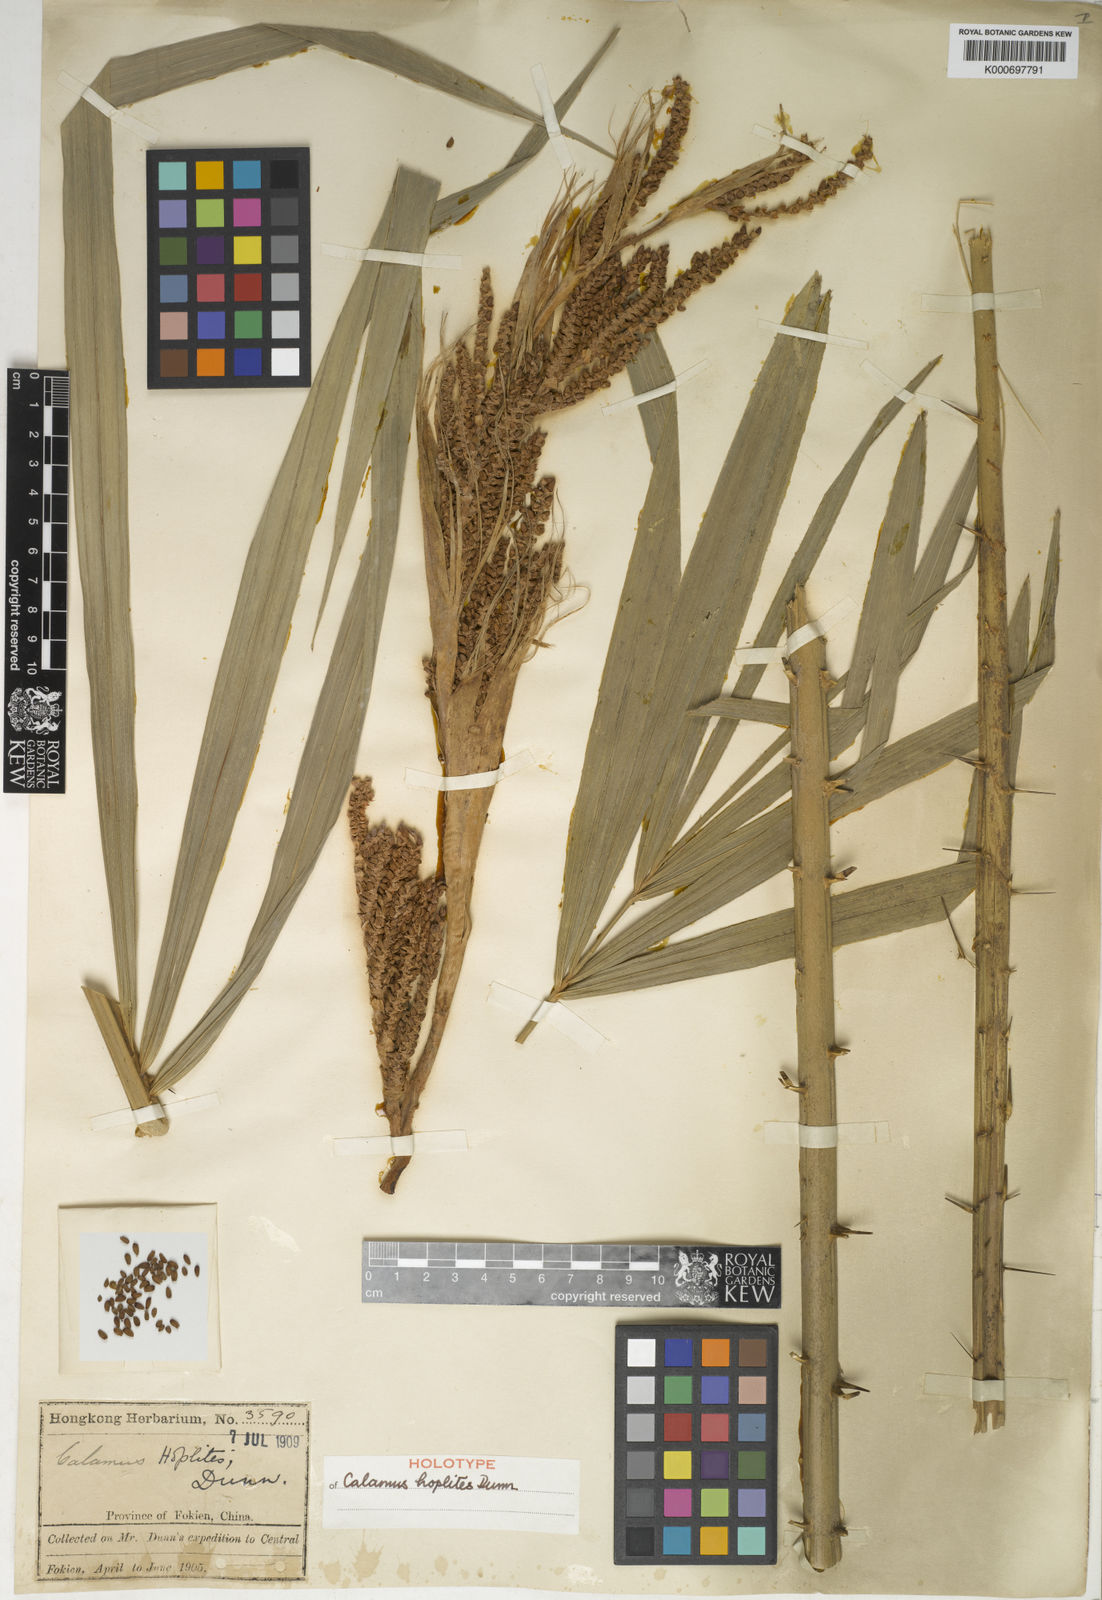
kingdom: Plantae
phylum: Tracheophyta
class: Liliopsida
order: Arecales
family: Arecaceae
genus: Calamus
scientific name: Calamus thysanolepis
